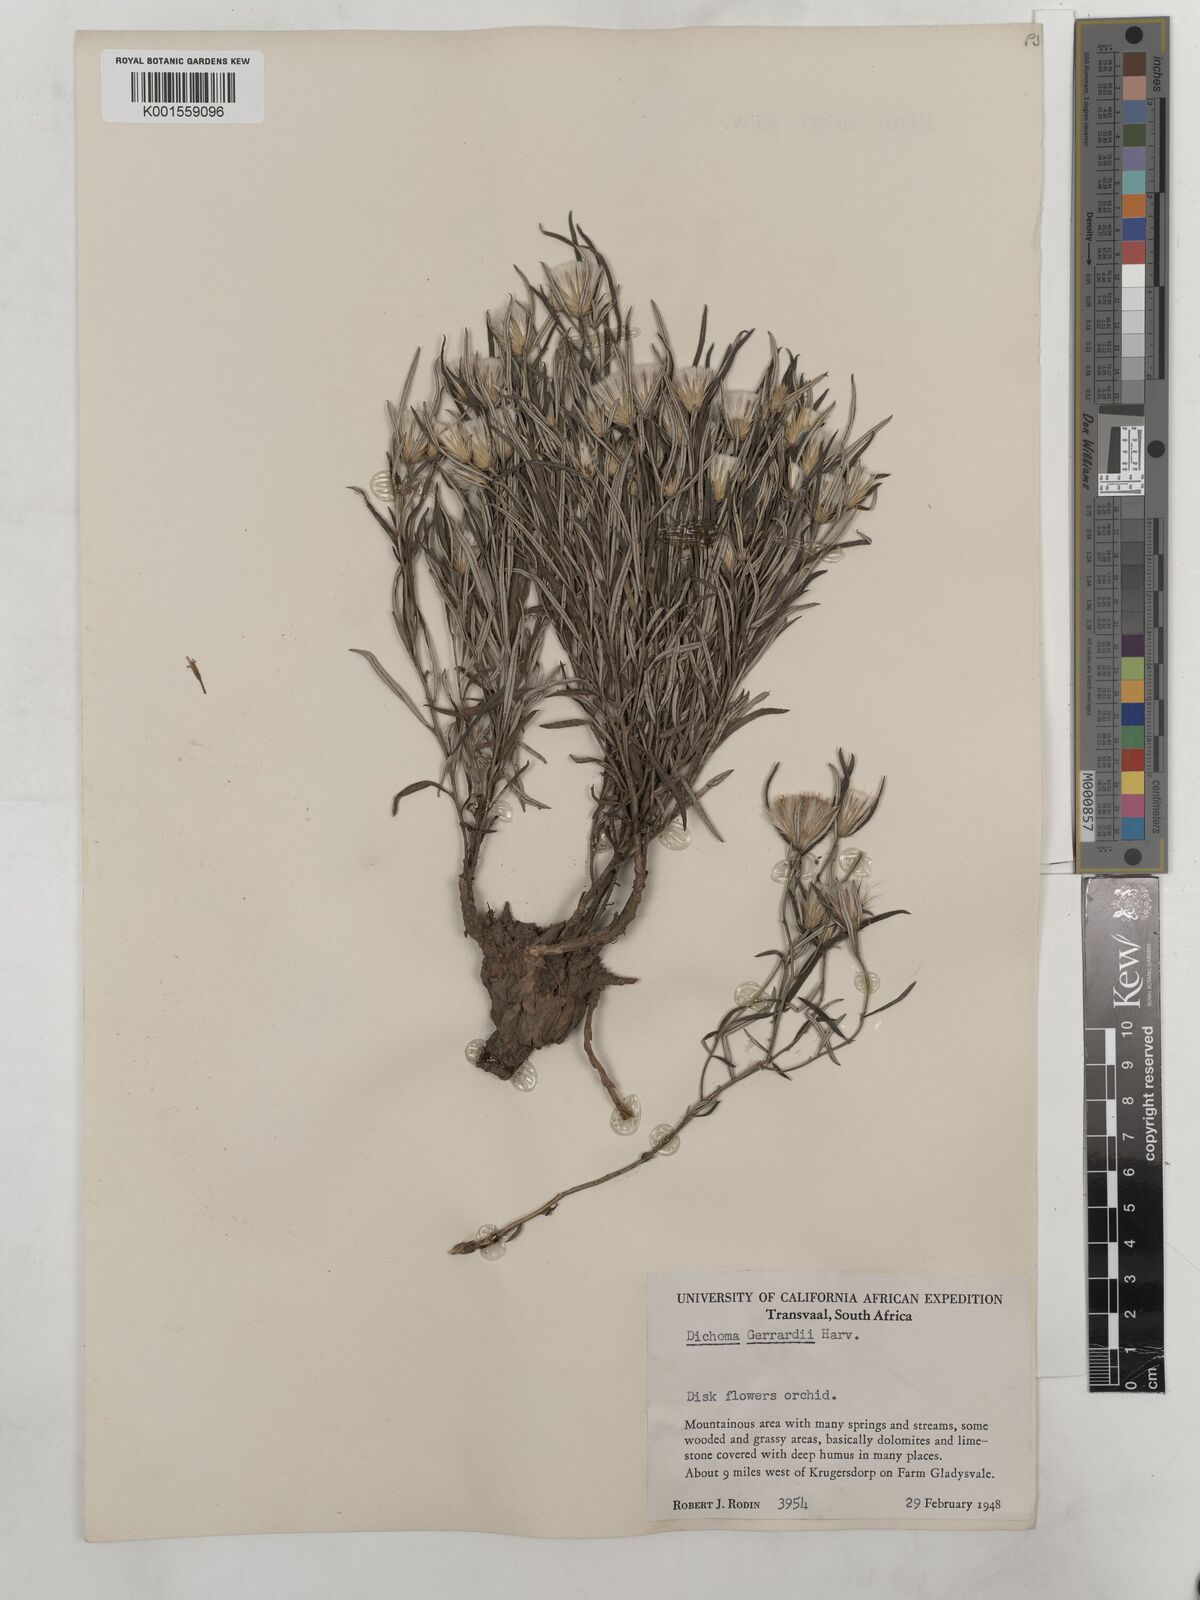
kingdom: Plantae
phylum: Tracheophyta
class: Magnoliopsida
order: Asterales
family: Asteraceae
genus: Dicoma
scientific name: Dicoma anomala
